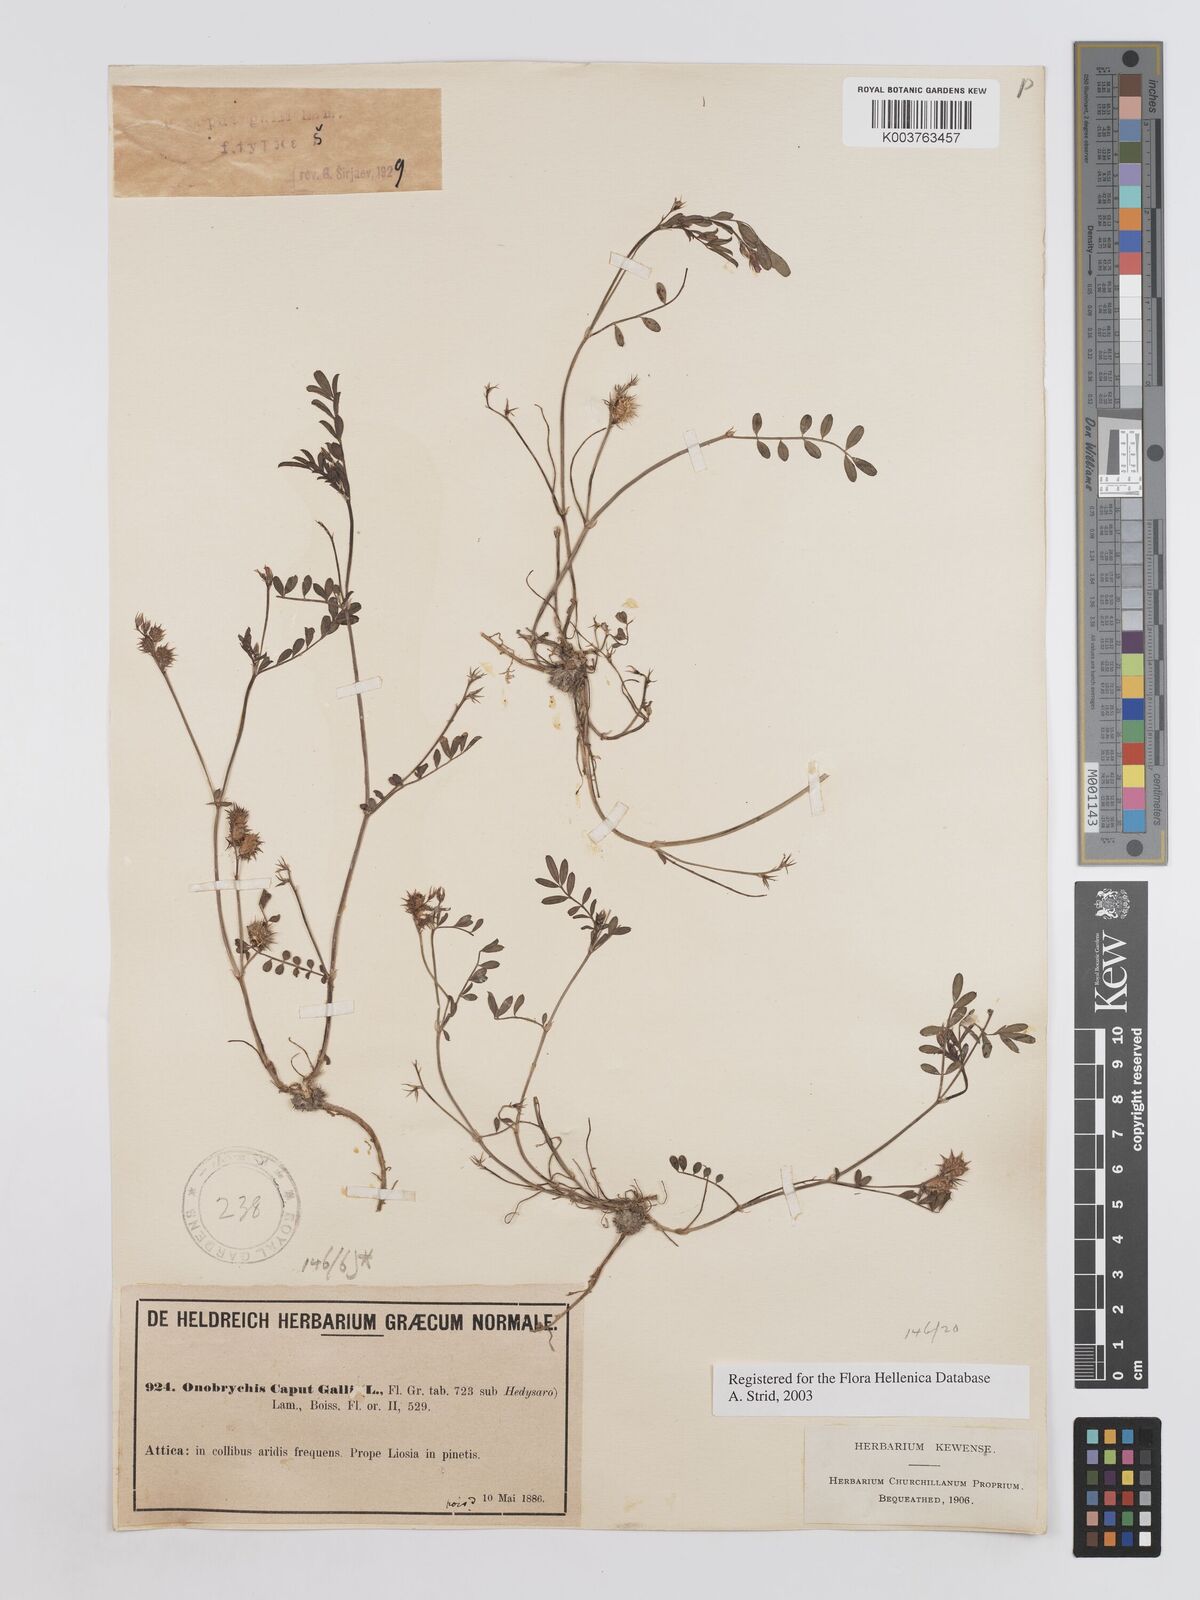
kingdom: Plantae
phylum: Tracheophyta
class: Magnoliopsida
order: Fabales
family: Fabaceae
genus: Onobrychis
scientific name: Onobrychis caput-galli
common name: Cockscomb sainfoin
